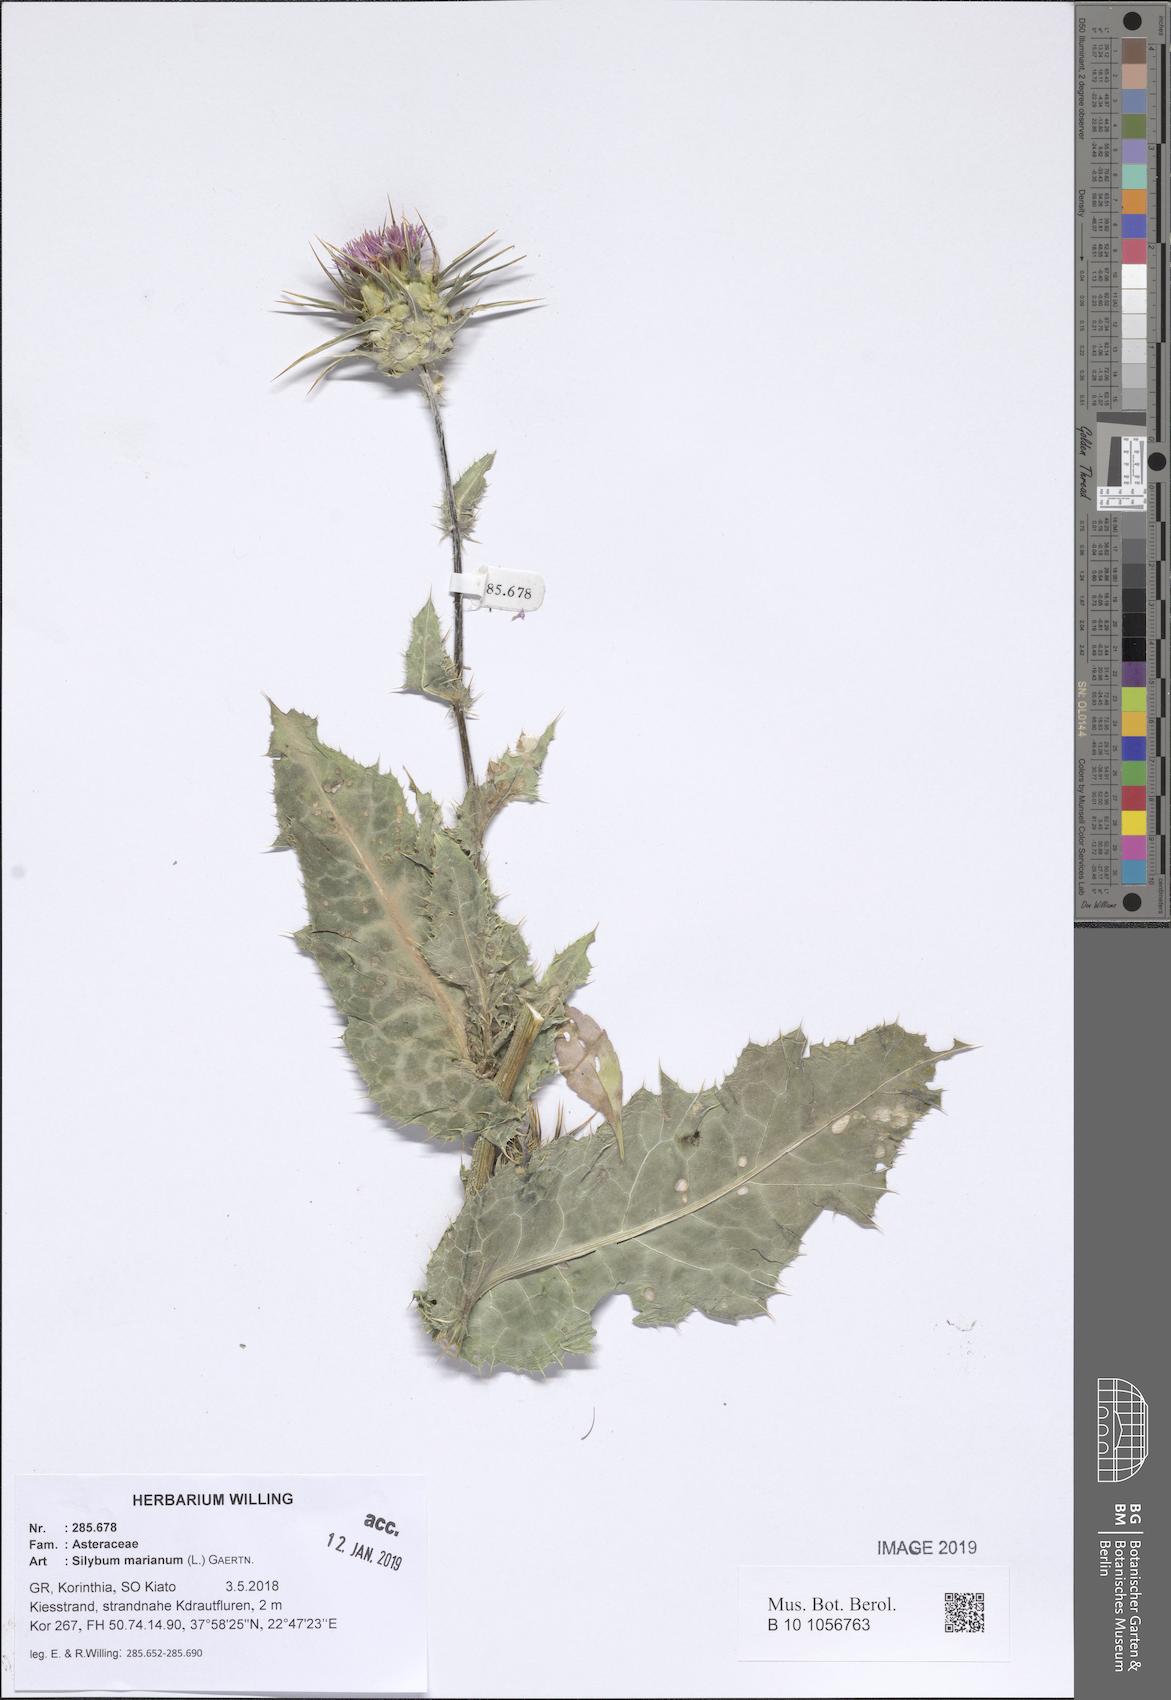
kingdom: Plantae
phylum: Tracheophyta
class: Magnoliopsida
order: Asterales
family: Asteraceae
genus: Silybum
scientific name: Silybum marianum
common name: Milk thistle
